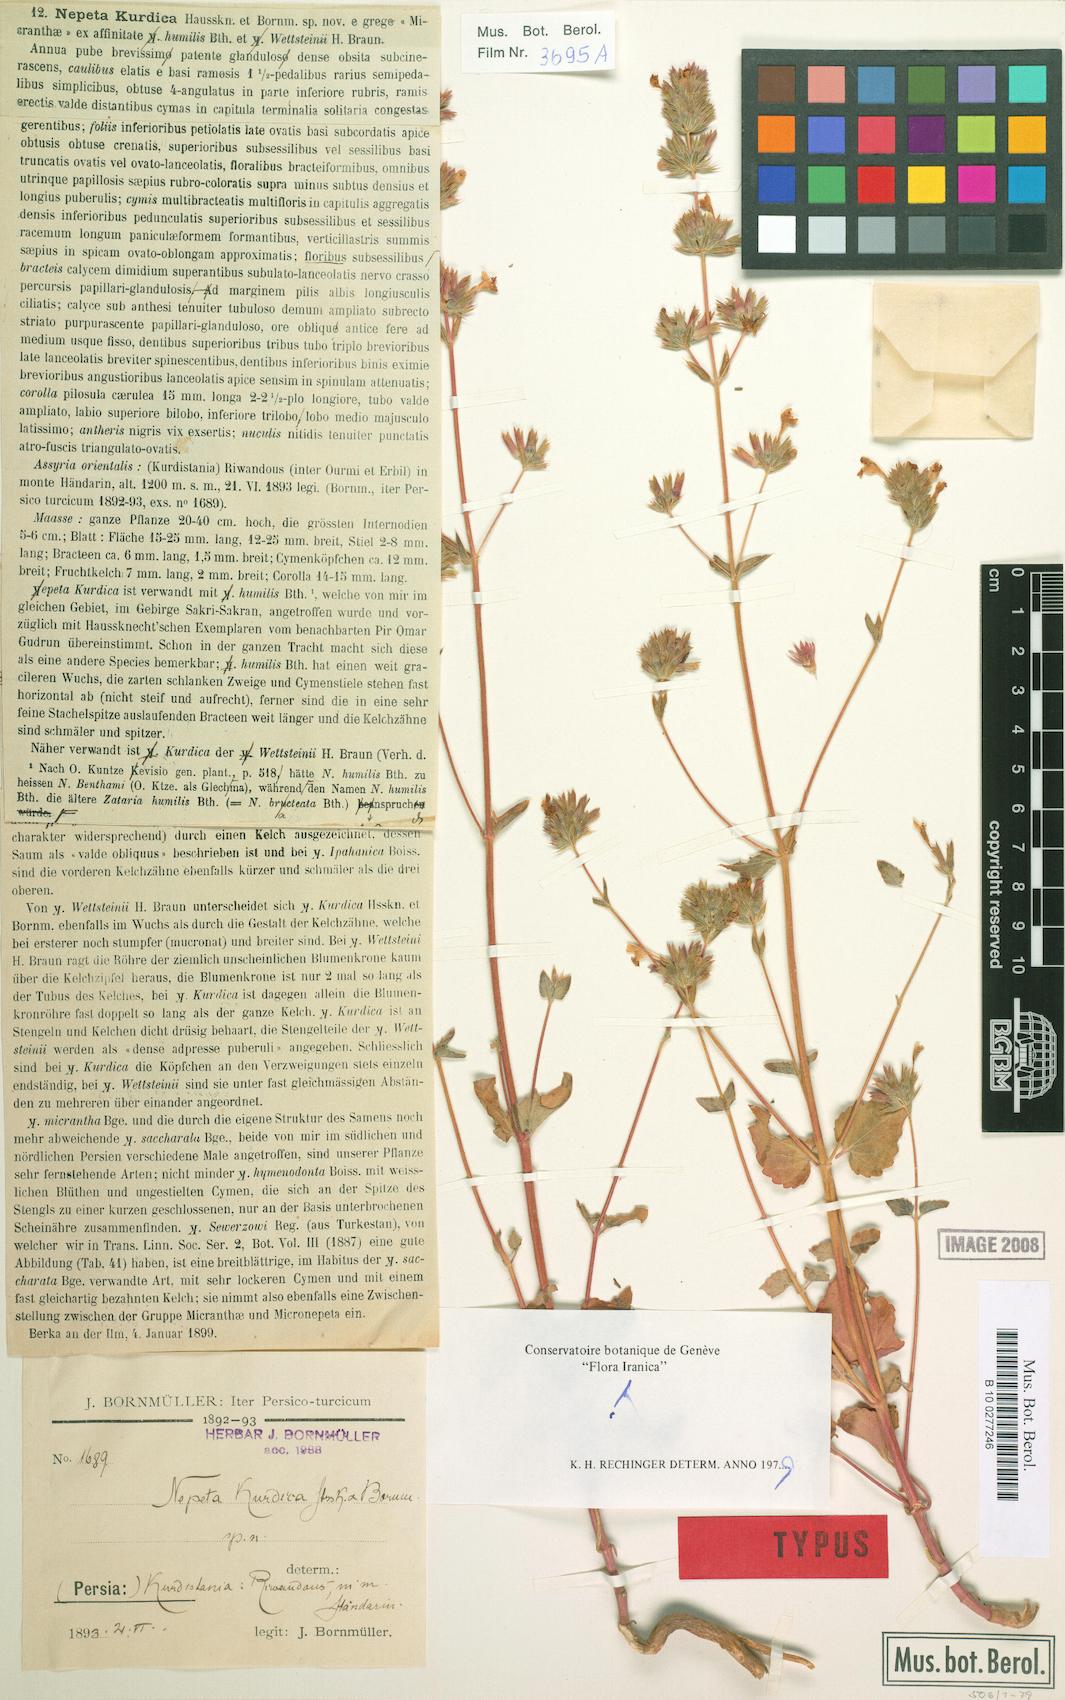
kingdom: Plantae
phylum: Tracheophyta
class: Magnoliopsida
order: Lamiales
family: Lamiaceae
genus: Nepeta
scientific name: Nepeta kurdica
